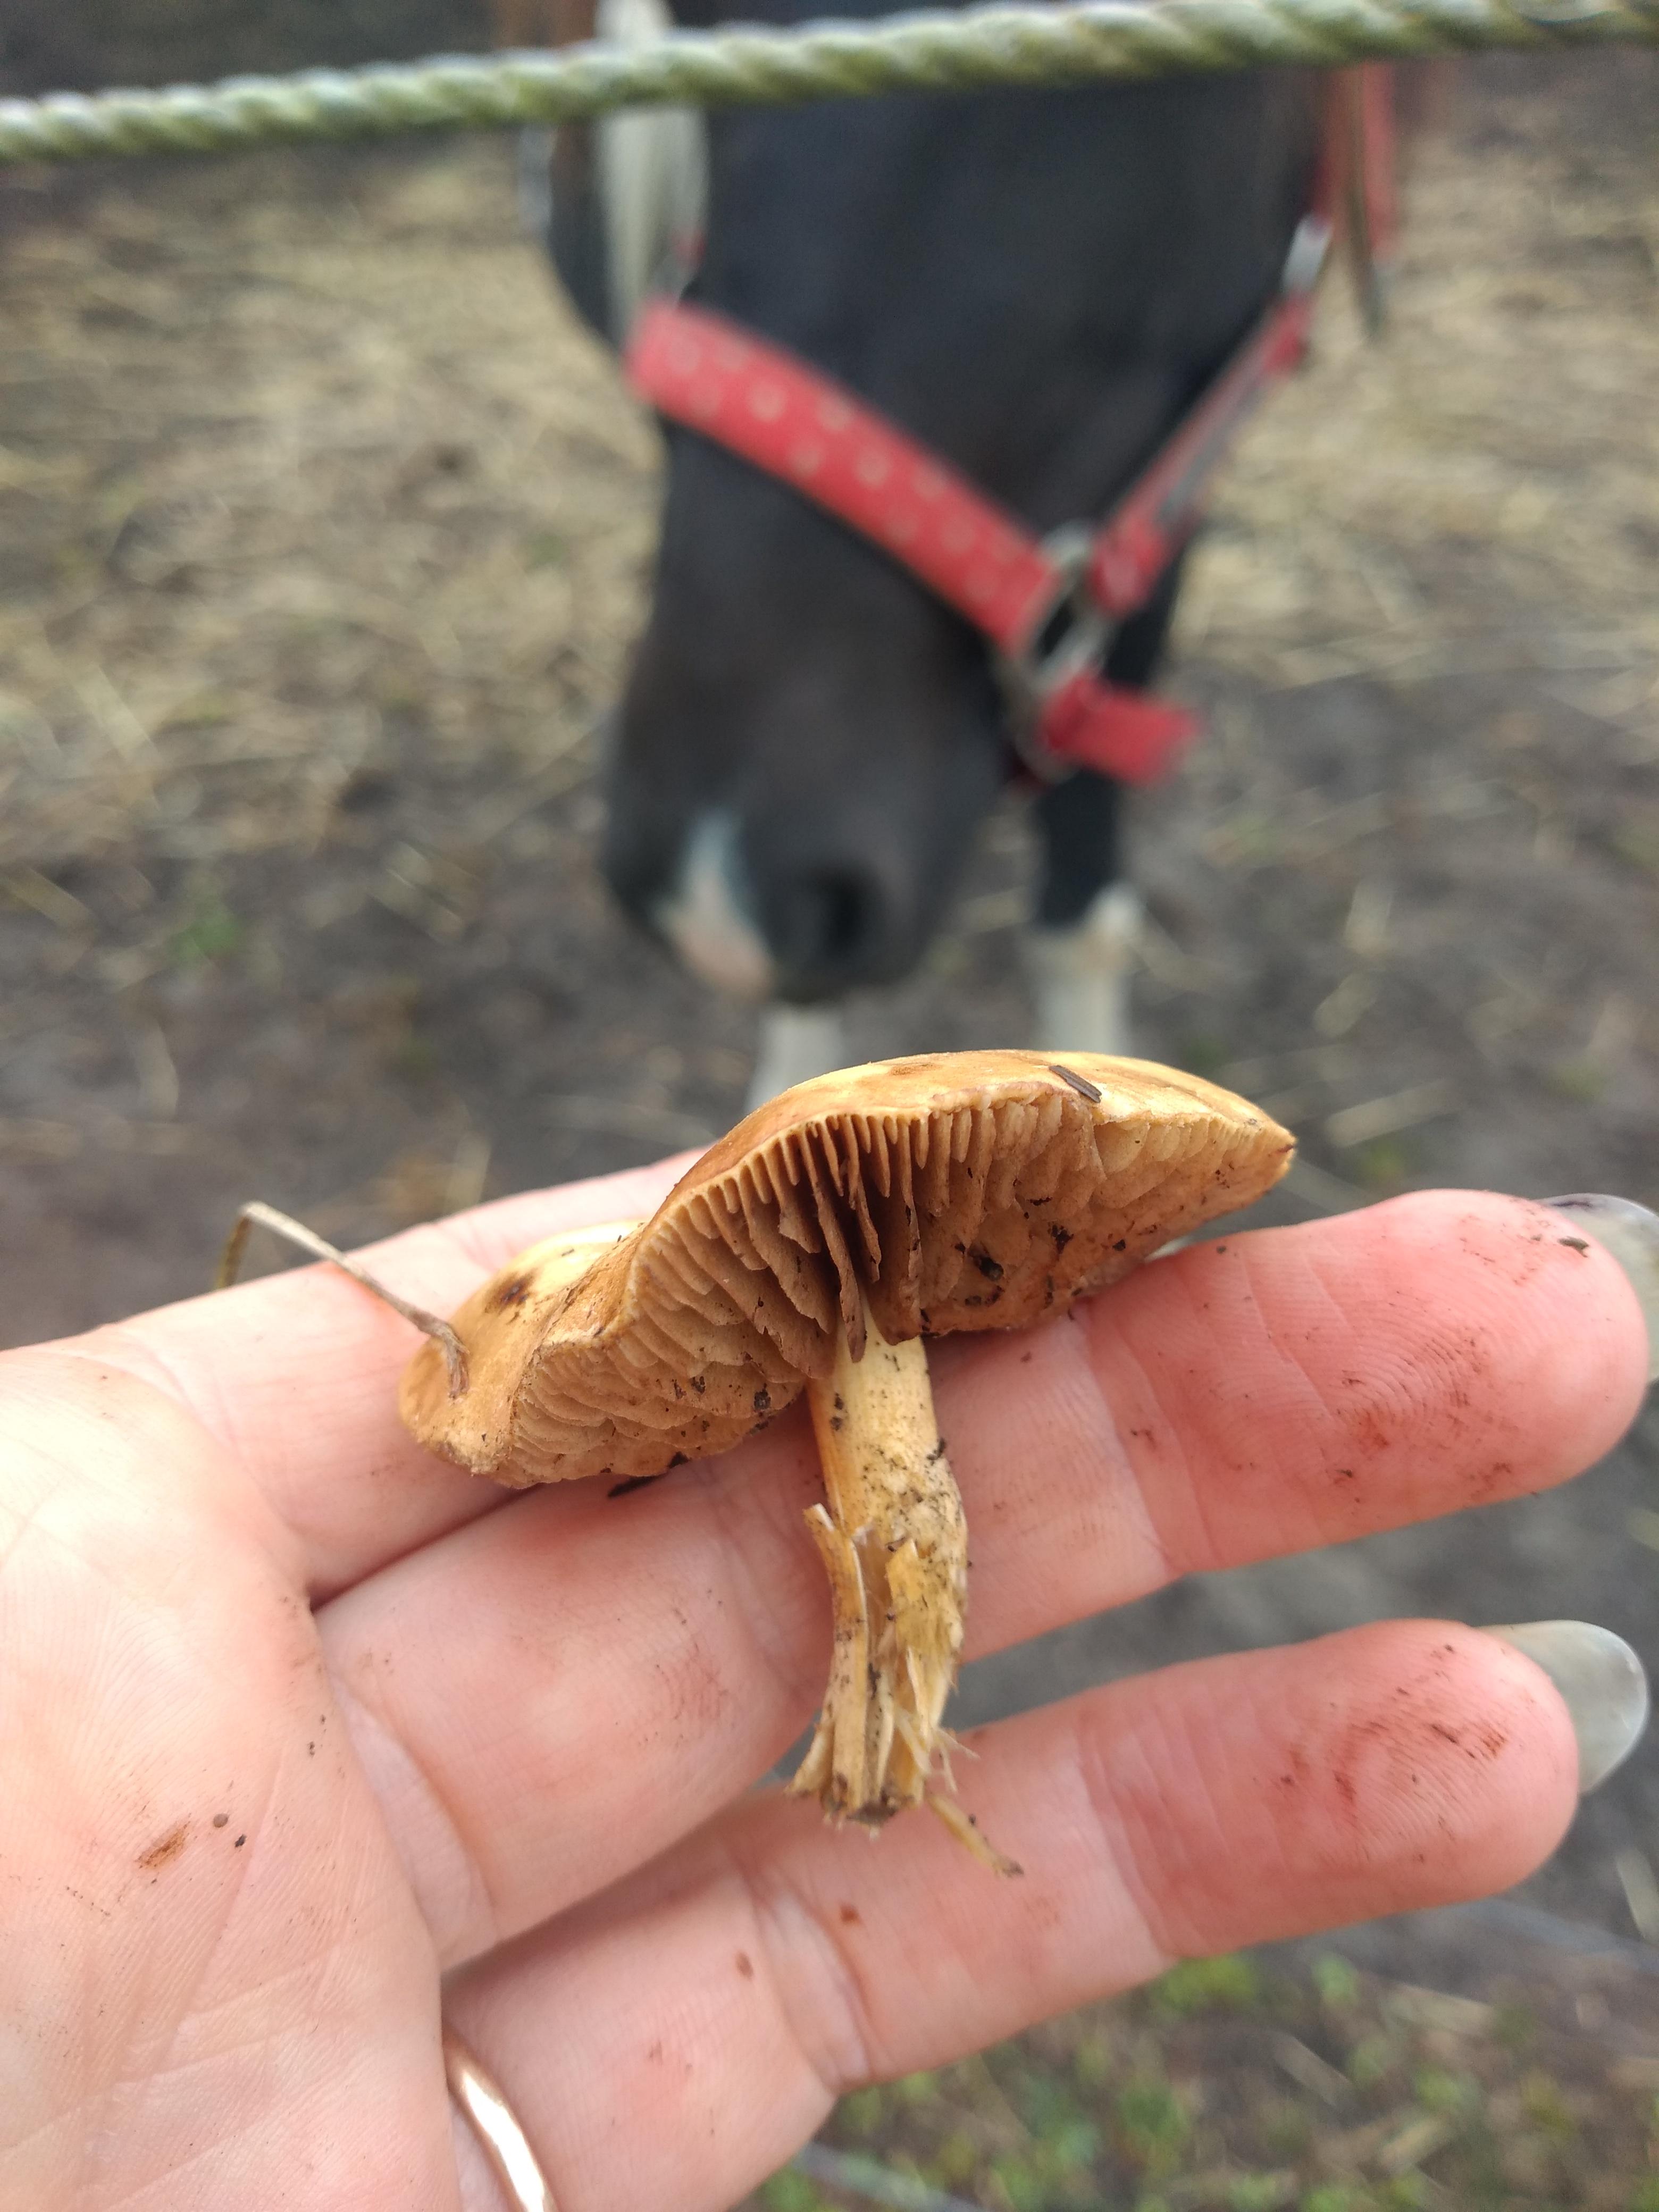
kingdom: Fungi
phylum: Basidiomycota
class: Agaricomycetes
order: Agaricales
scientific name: Agaricales
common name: champignonordenen
